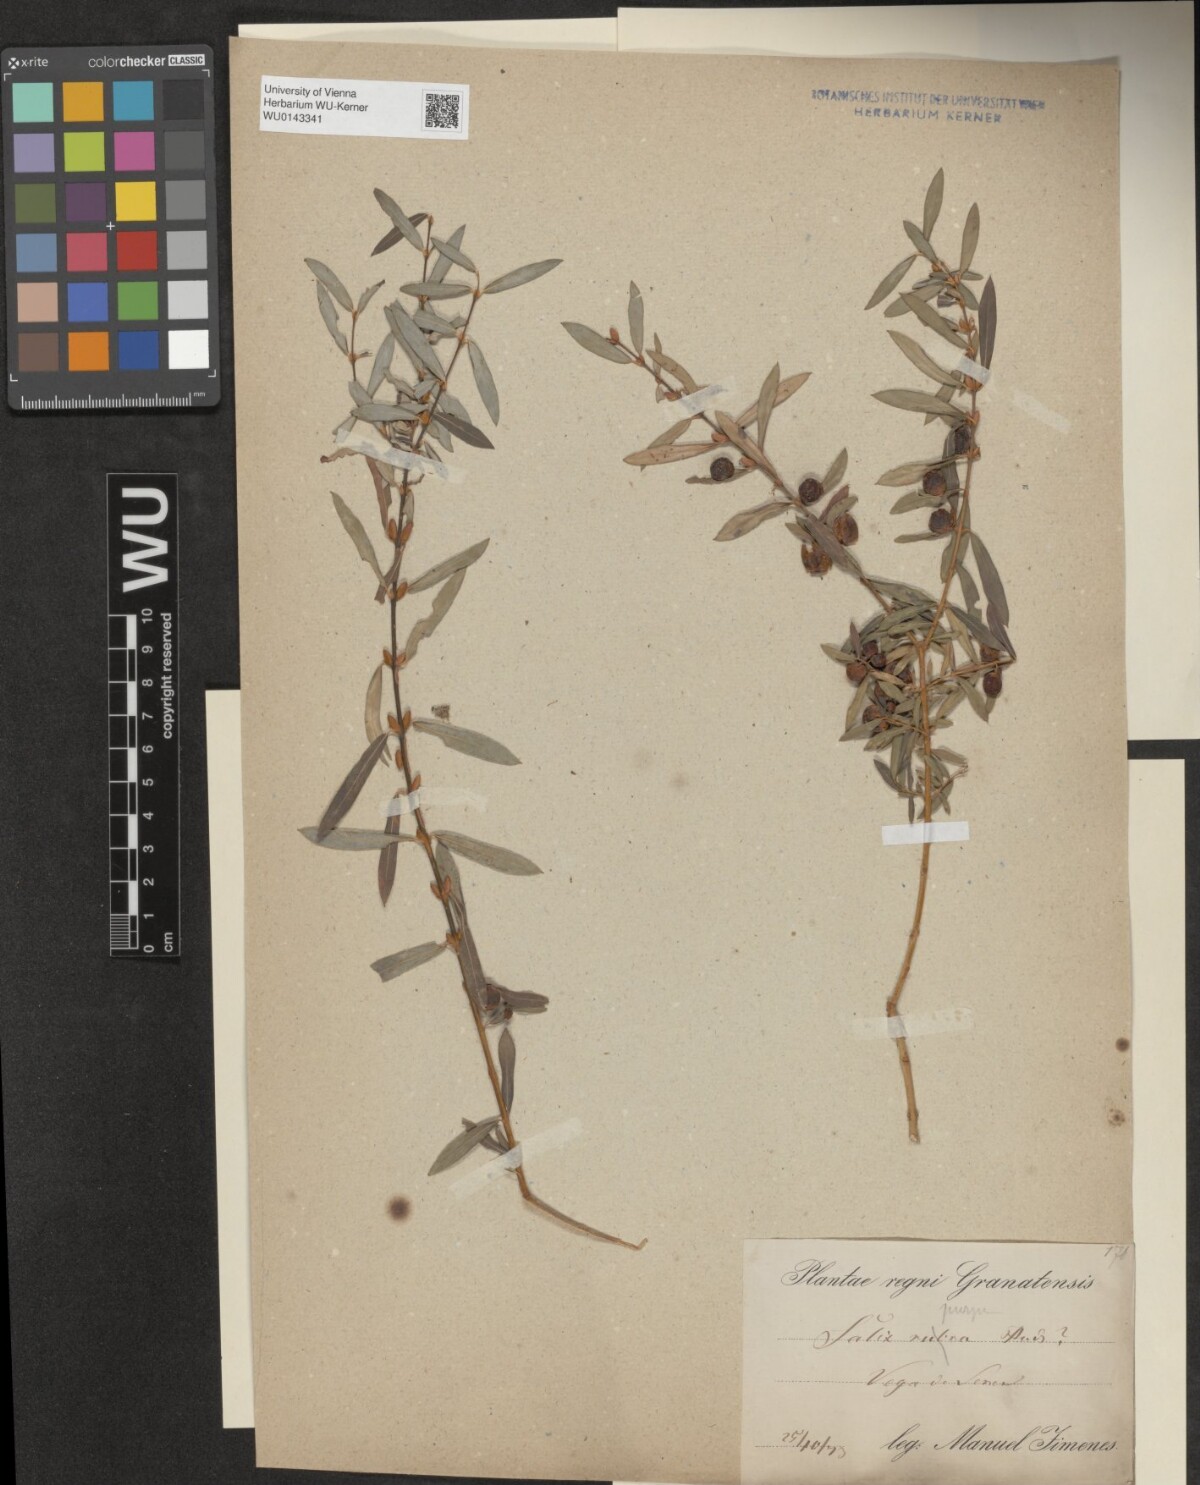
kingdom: Plantae
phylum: Tracheophyta
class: Magnoliopsida
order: Malpighiales
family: Salicaceae
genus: Salix
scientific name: Salix purpurea
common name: Purple willow
